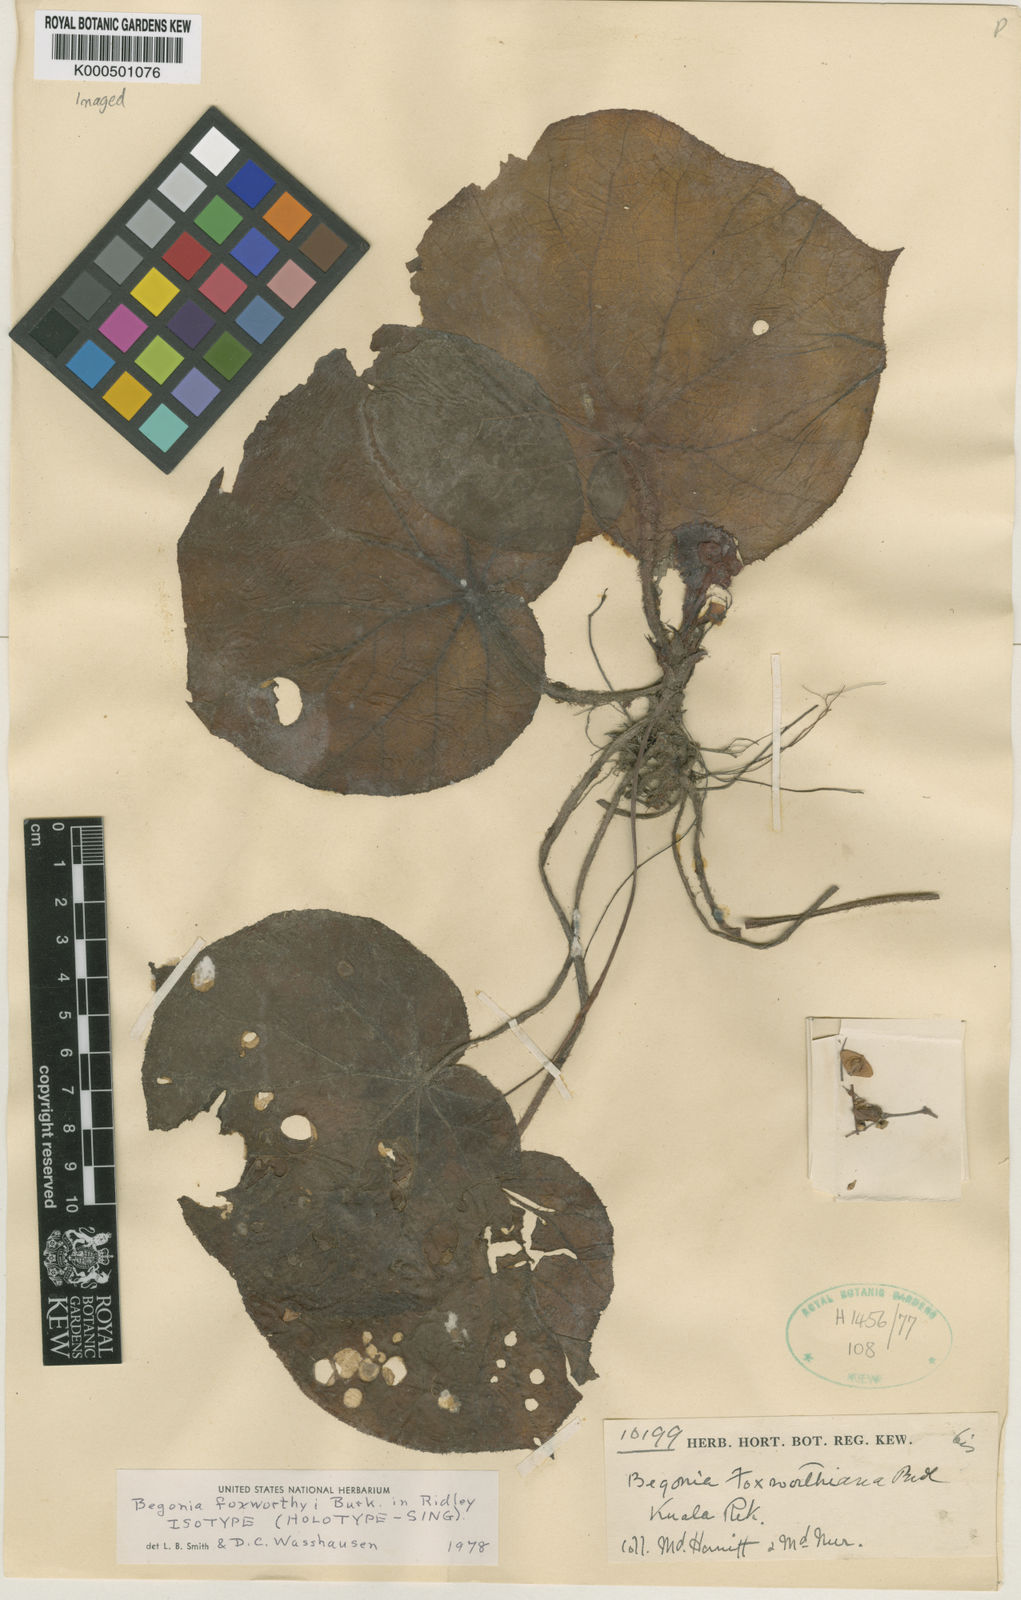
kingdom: Plantae
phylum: Tracheophyta
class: Magnoliopsida
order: Cucurbitales
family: Begoniaceae
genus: Begonia
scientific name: Begonia foxworthyi
